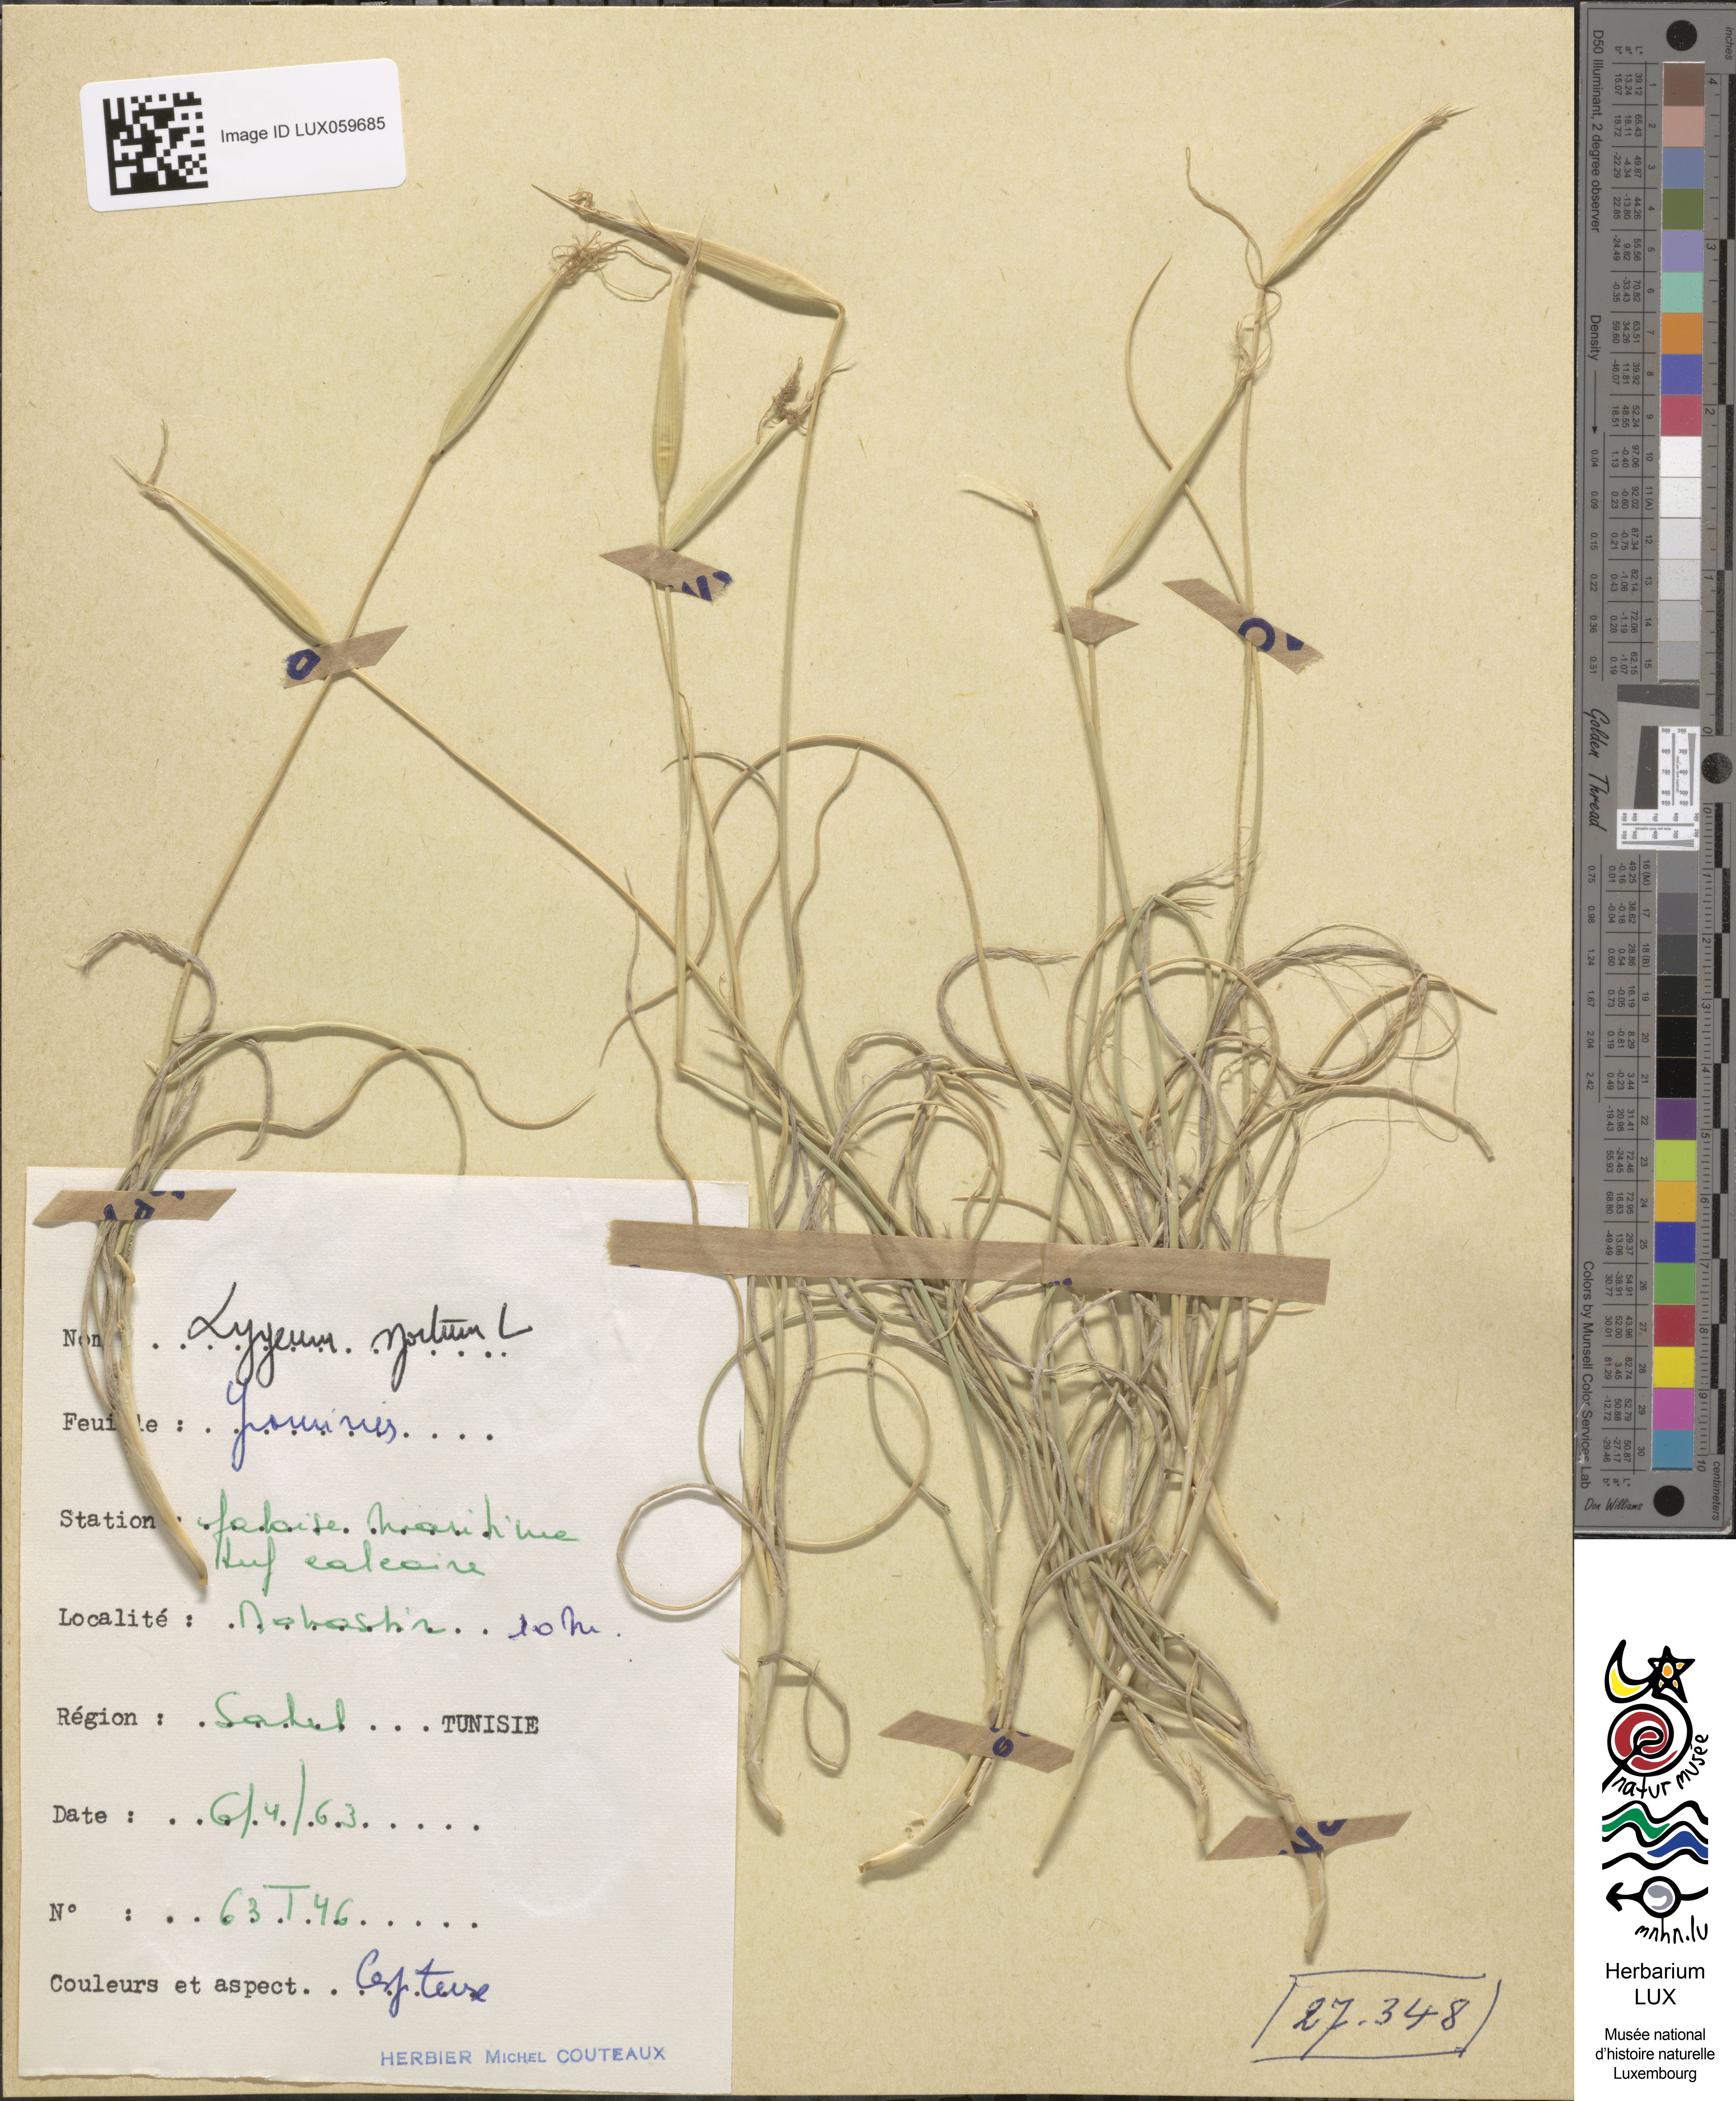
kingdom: Plantae
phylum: Tracheophyta
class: Liliopsida
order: Poales
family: Poaceae
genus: Lygeum
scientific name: Lygeum spartum
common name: Albardine
